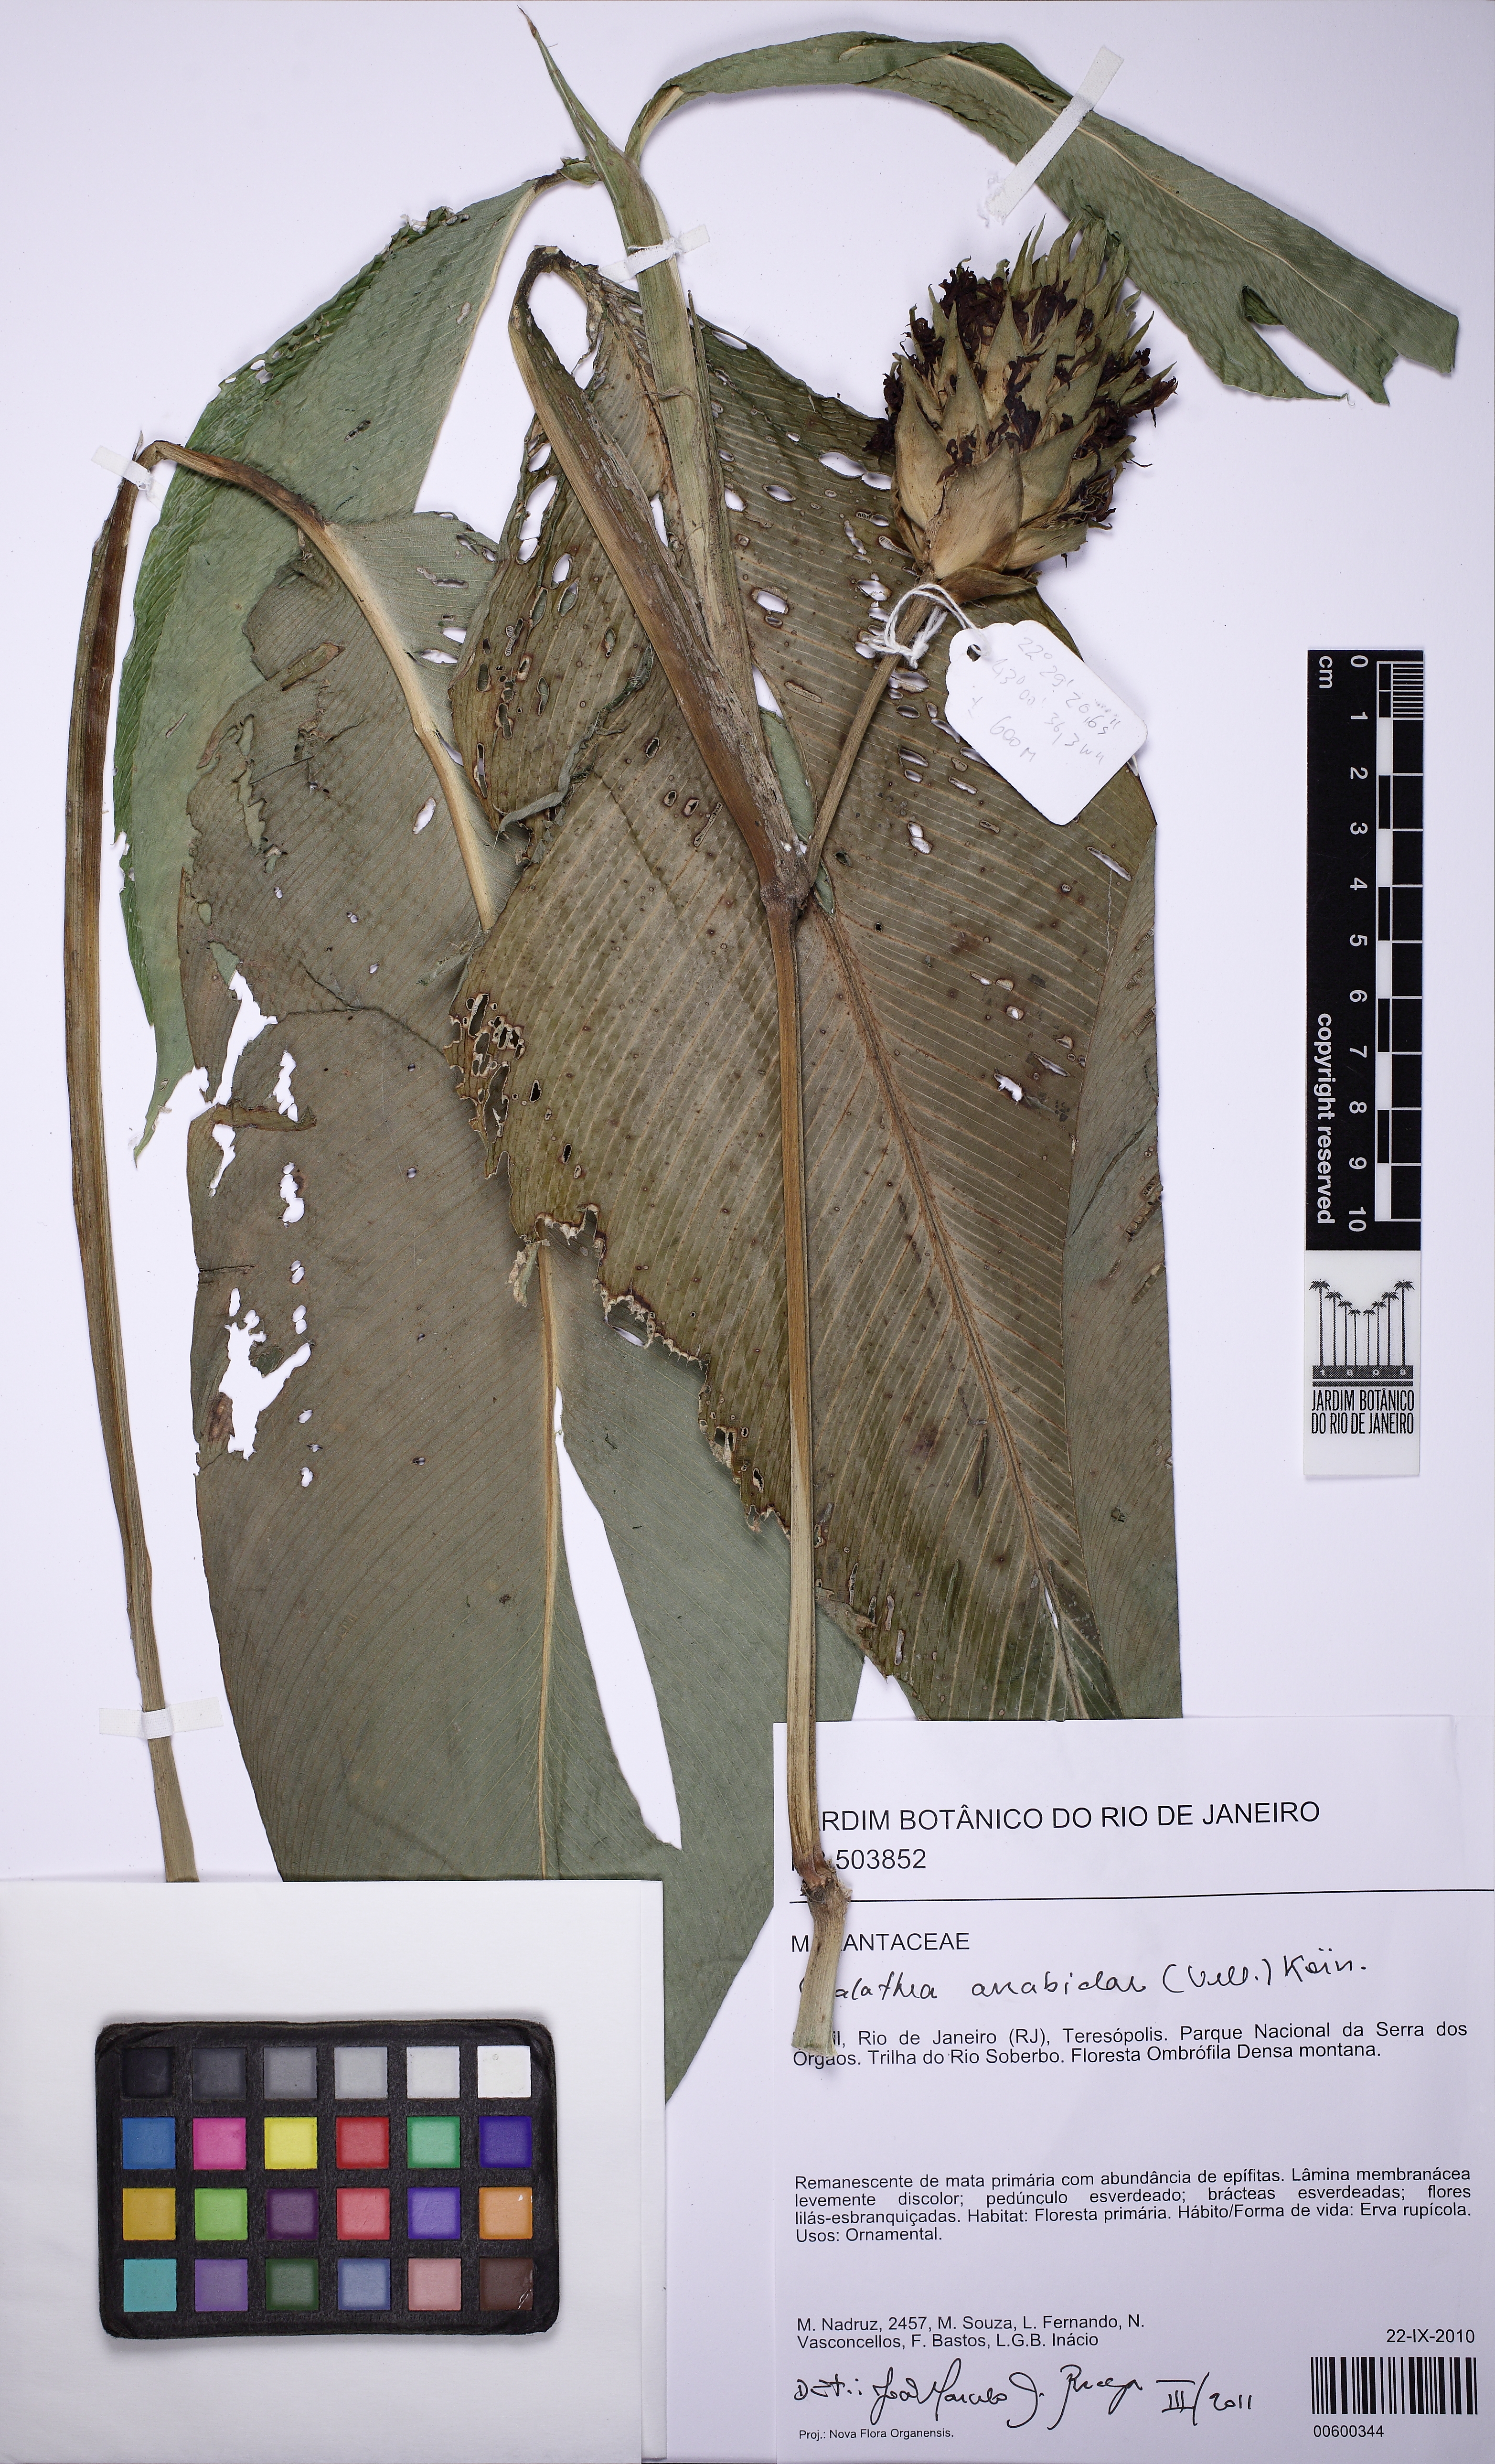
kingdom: Plantae
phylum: Tracheophyta
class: Liliopsida
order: Zingiberales
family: Marantaceae
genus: Goeppertia
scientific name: Goeppertia arrabidae
